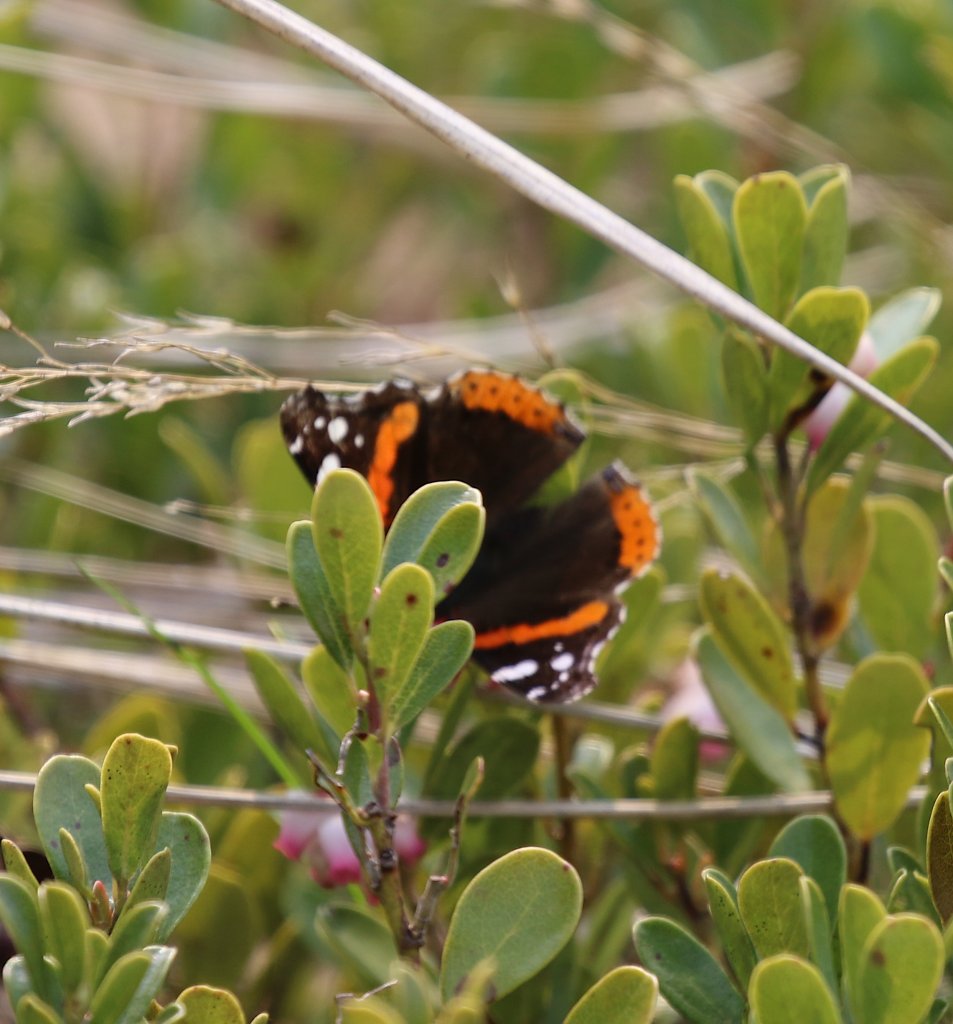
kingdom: Animalia
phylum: Arthropoda
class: Insecta
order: Lepidoptera
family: Nymphalidae
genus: Vanessa
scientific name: Vanessa atalanta
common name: Red Admiral
